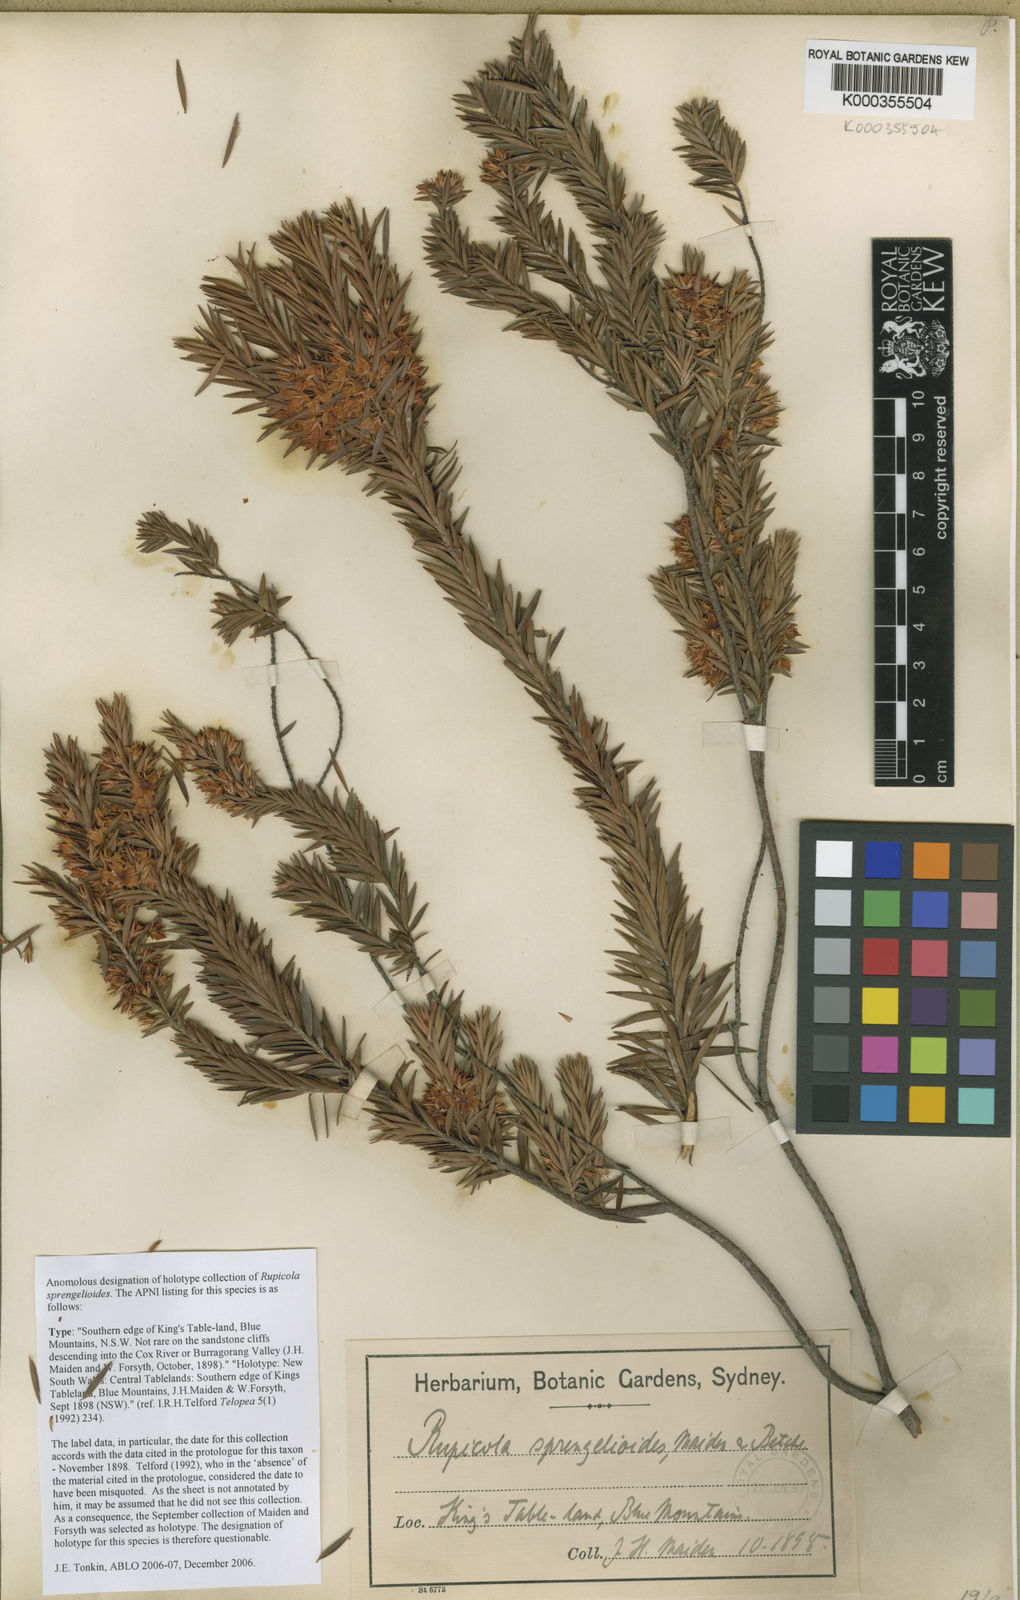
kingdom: Plantae
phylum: Tracheophyta
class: Magnoliopsida
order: Ericales
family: Ericaceae
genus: Epacris
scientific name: Epacris
